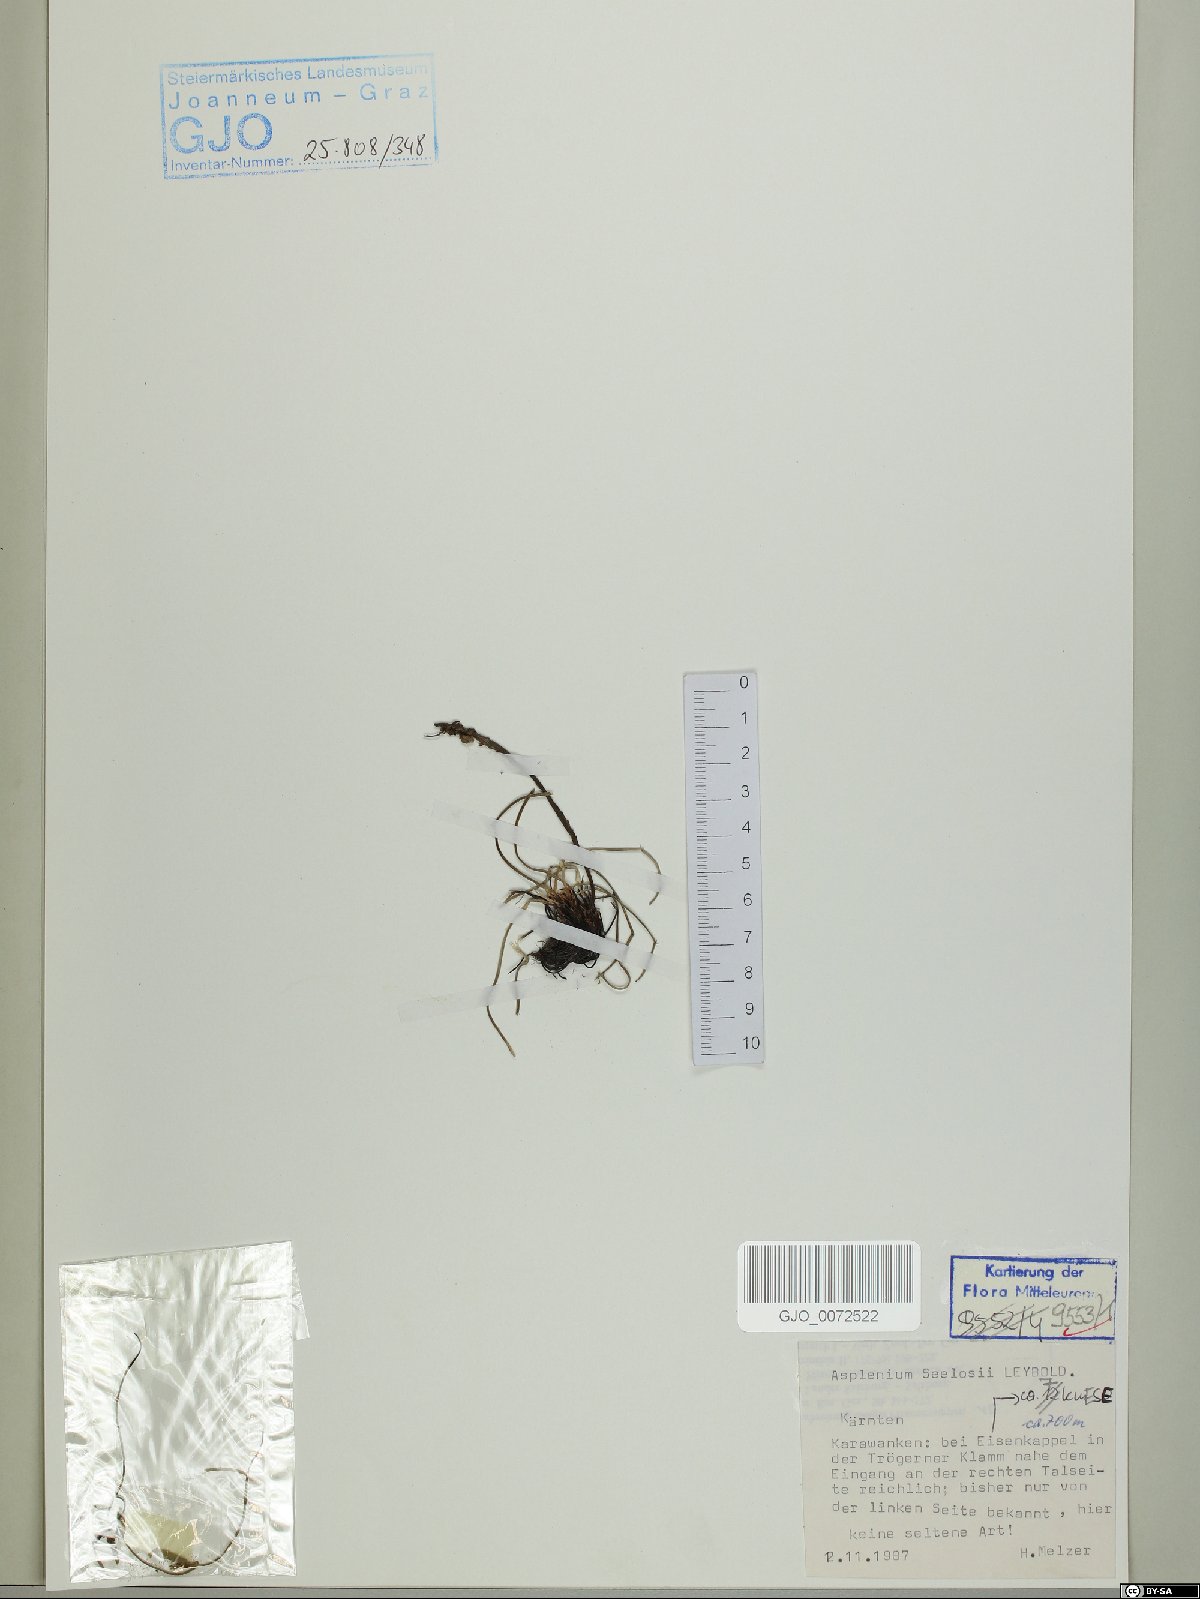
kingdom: Plantae
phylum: Tracheophyta
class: Polypodiopsida
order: Polypodiales
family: Aspleniaceae
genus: Asplenium
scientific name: Asplenium seelosii
